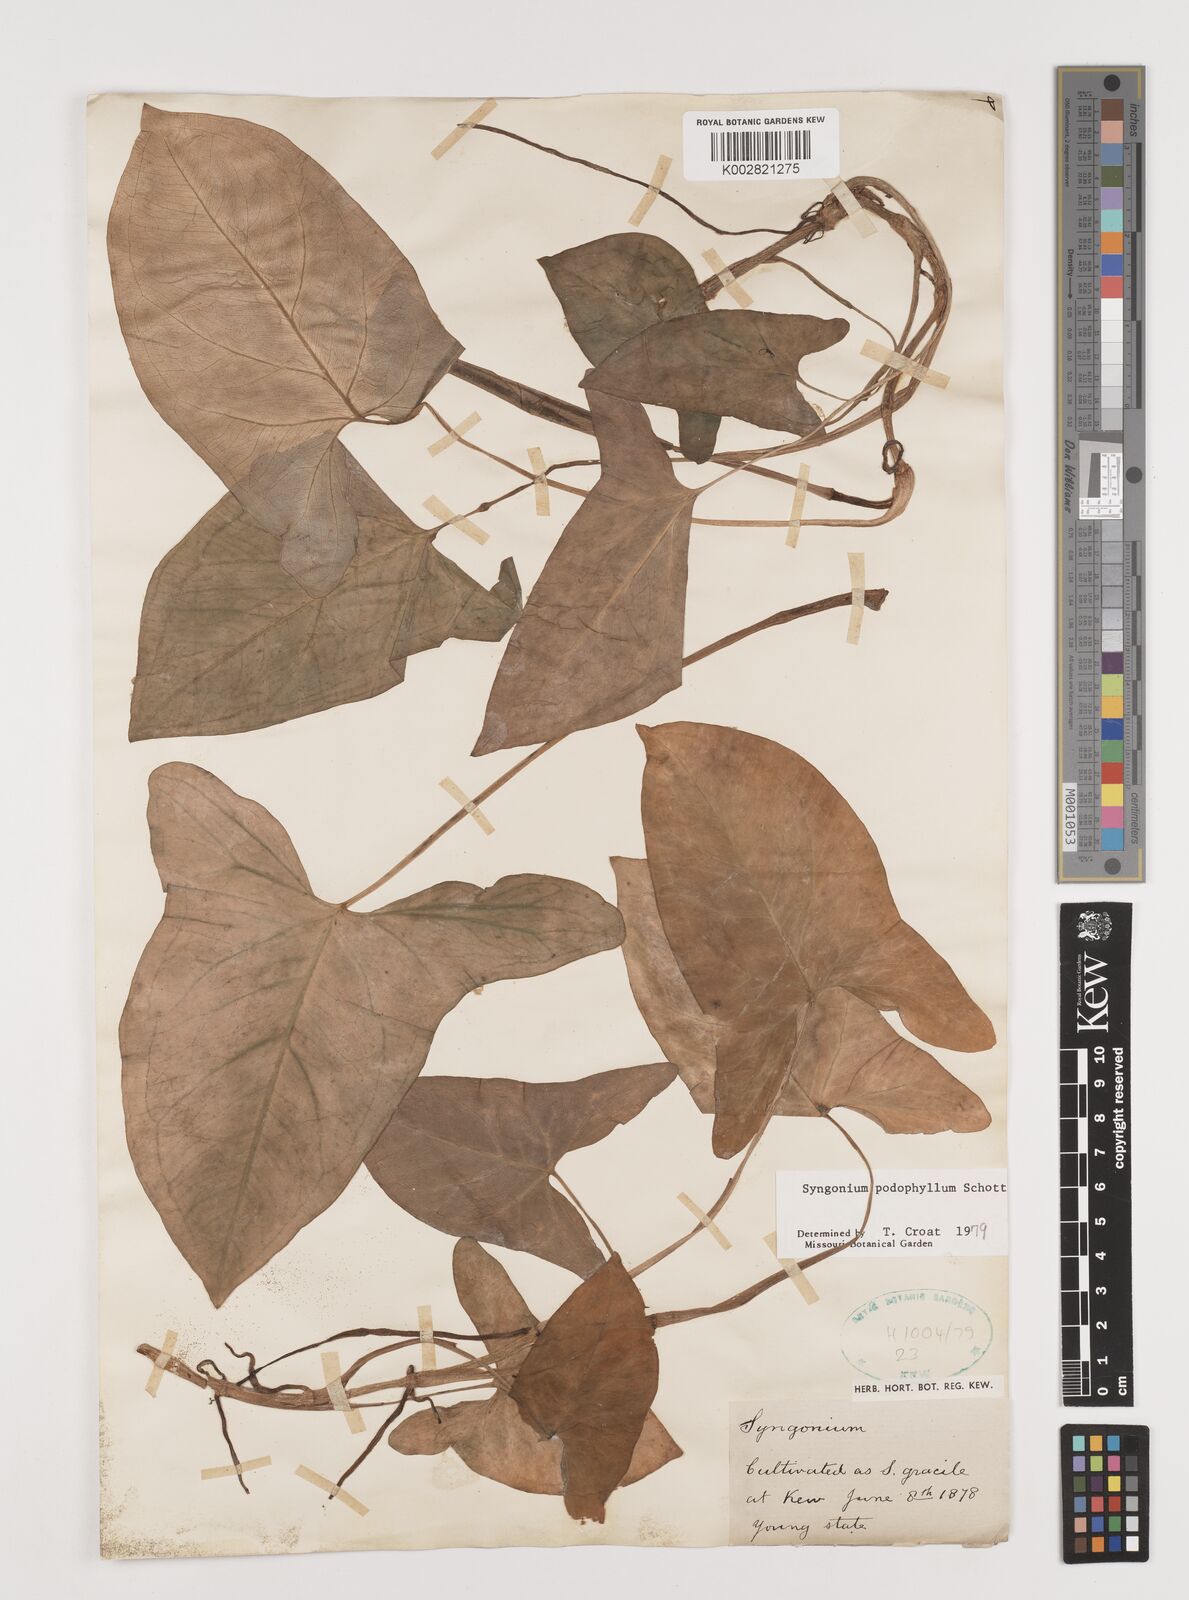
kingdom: Plantae
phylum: Tracheophyta
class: Liliopsida
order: Alismatales
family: Araceae
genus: Syngonium
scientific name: Syngonium podophyllum
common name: American evergreen
